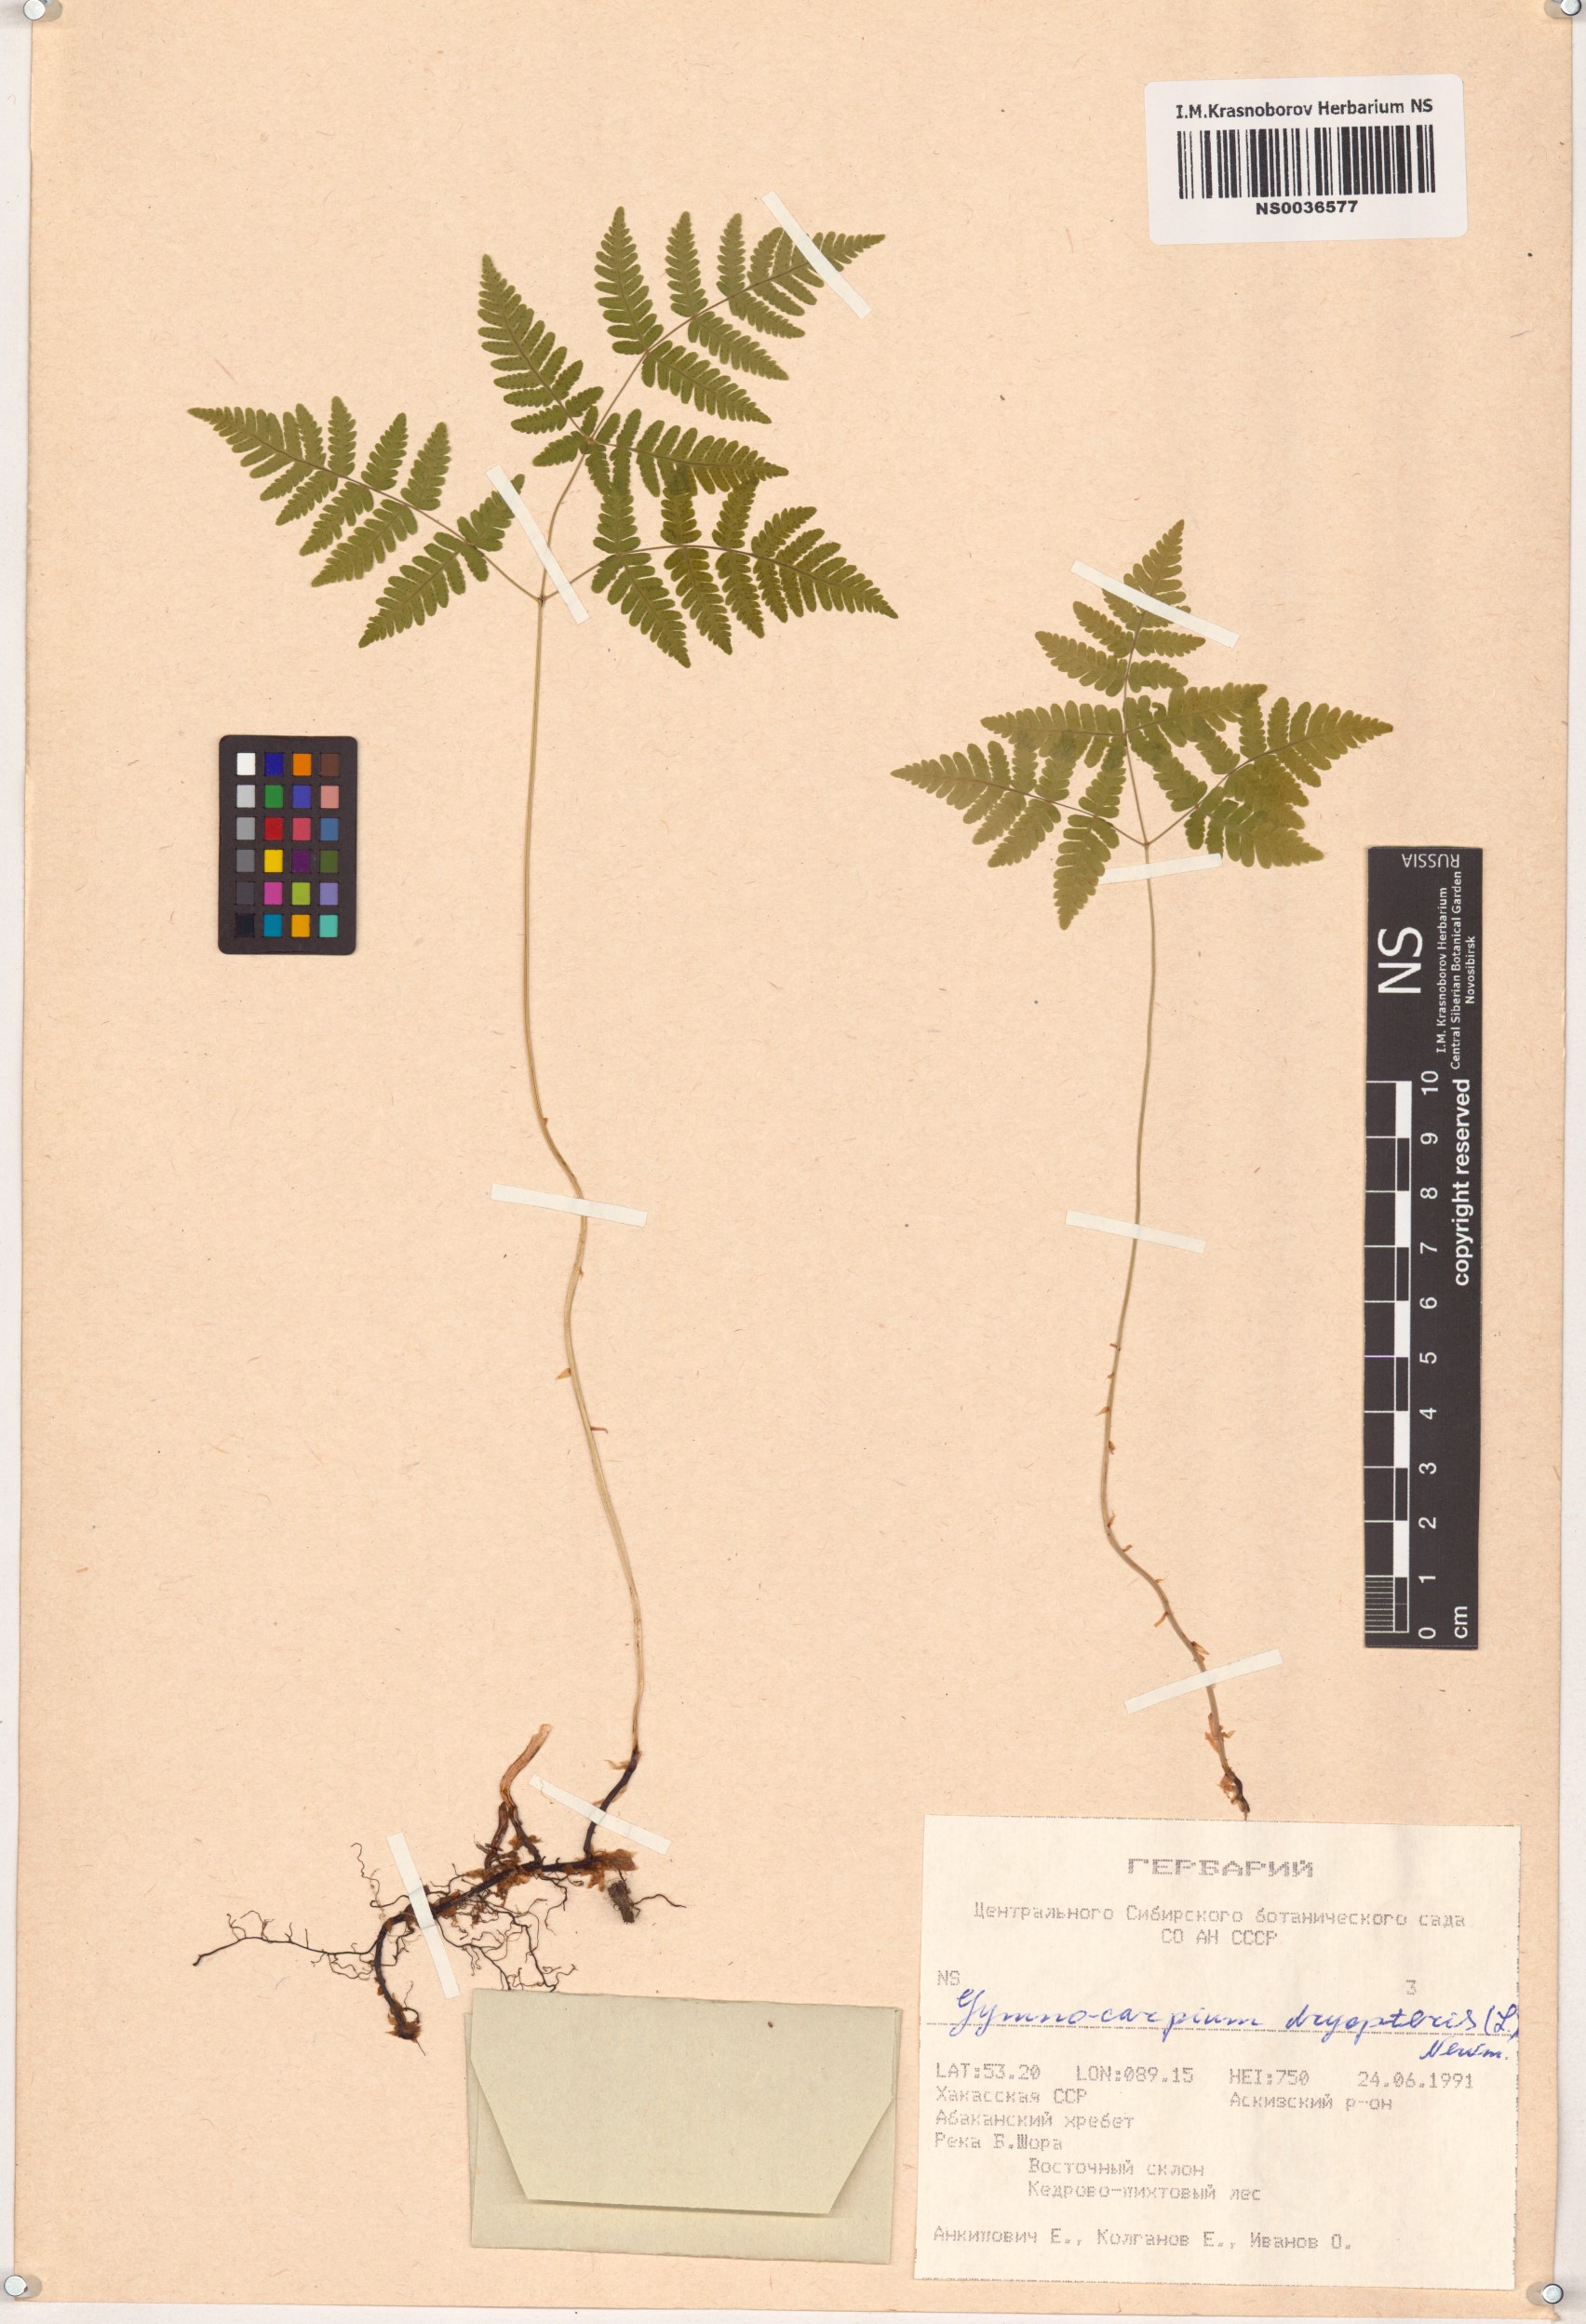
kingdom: Plantae
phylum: Tracheophyta
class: Polypodiopsida
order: Polypodiales
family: Cystopteridaceae
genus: Gymnocarpium
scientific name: Gymnocarpium dryopteris
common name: Oak fern
